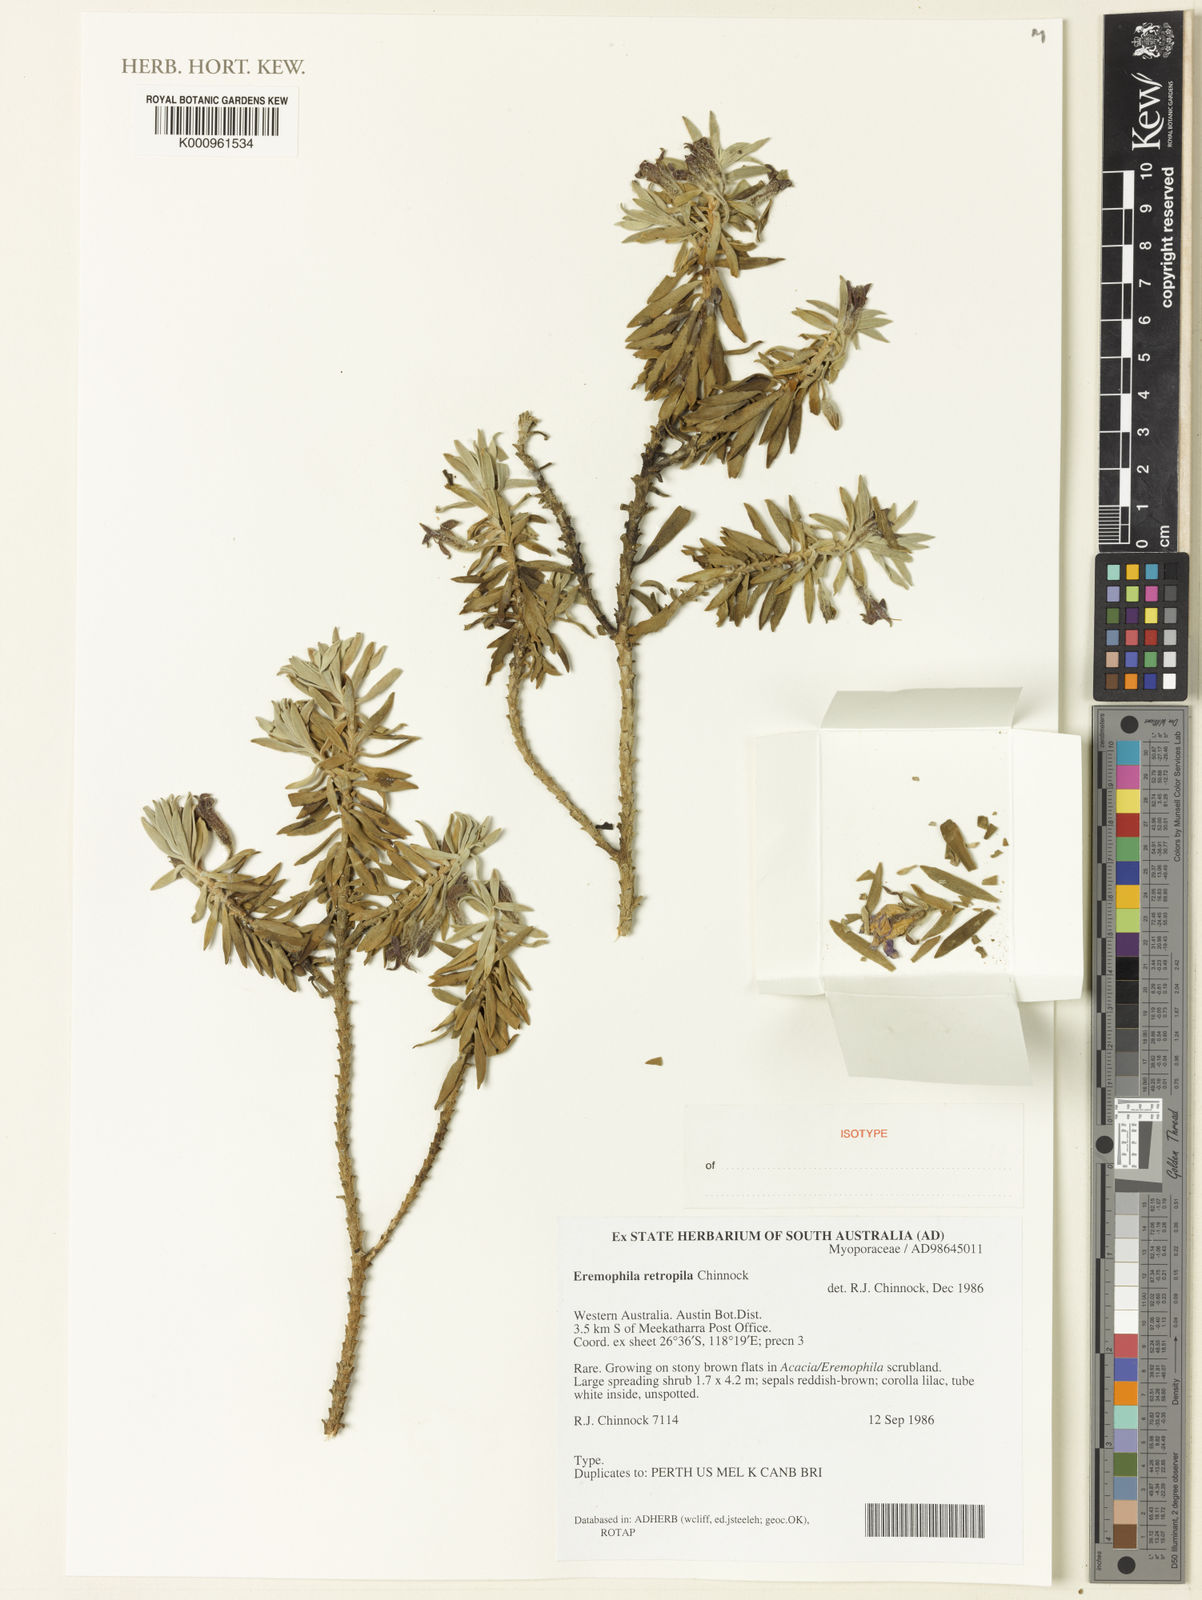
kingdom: Plantae
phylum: Tracheophyta
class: Magnoliopsida
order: Lamiales
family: Scrophulariaceae
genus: Eremophila
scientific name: Eremophila retropila
